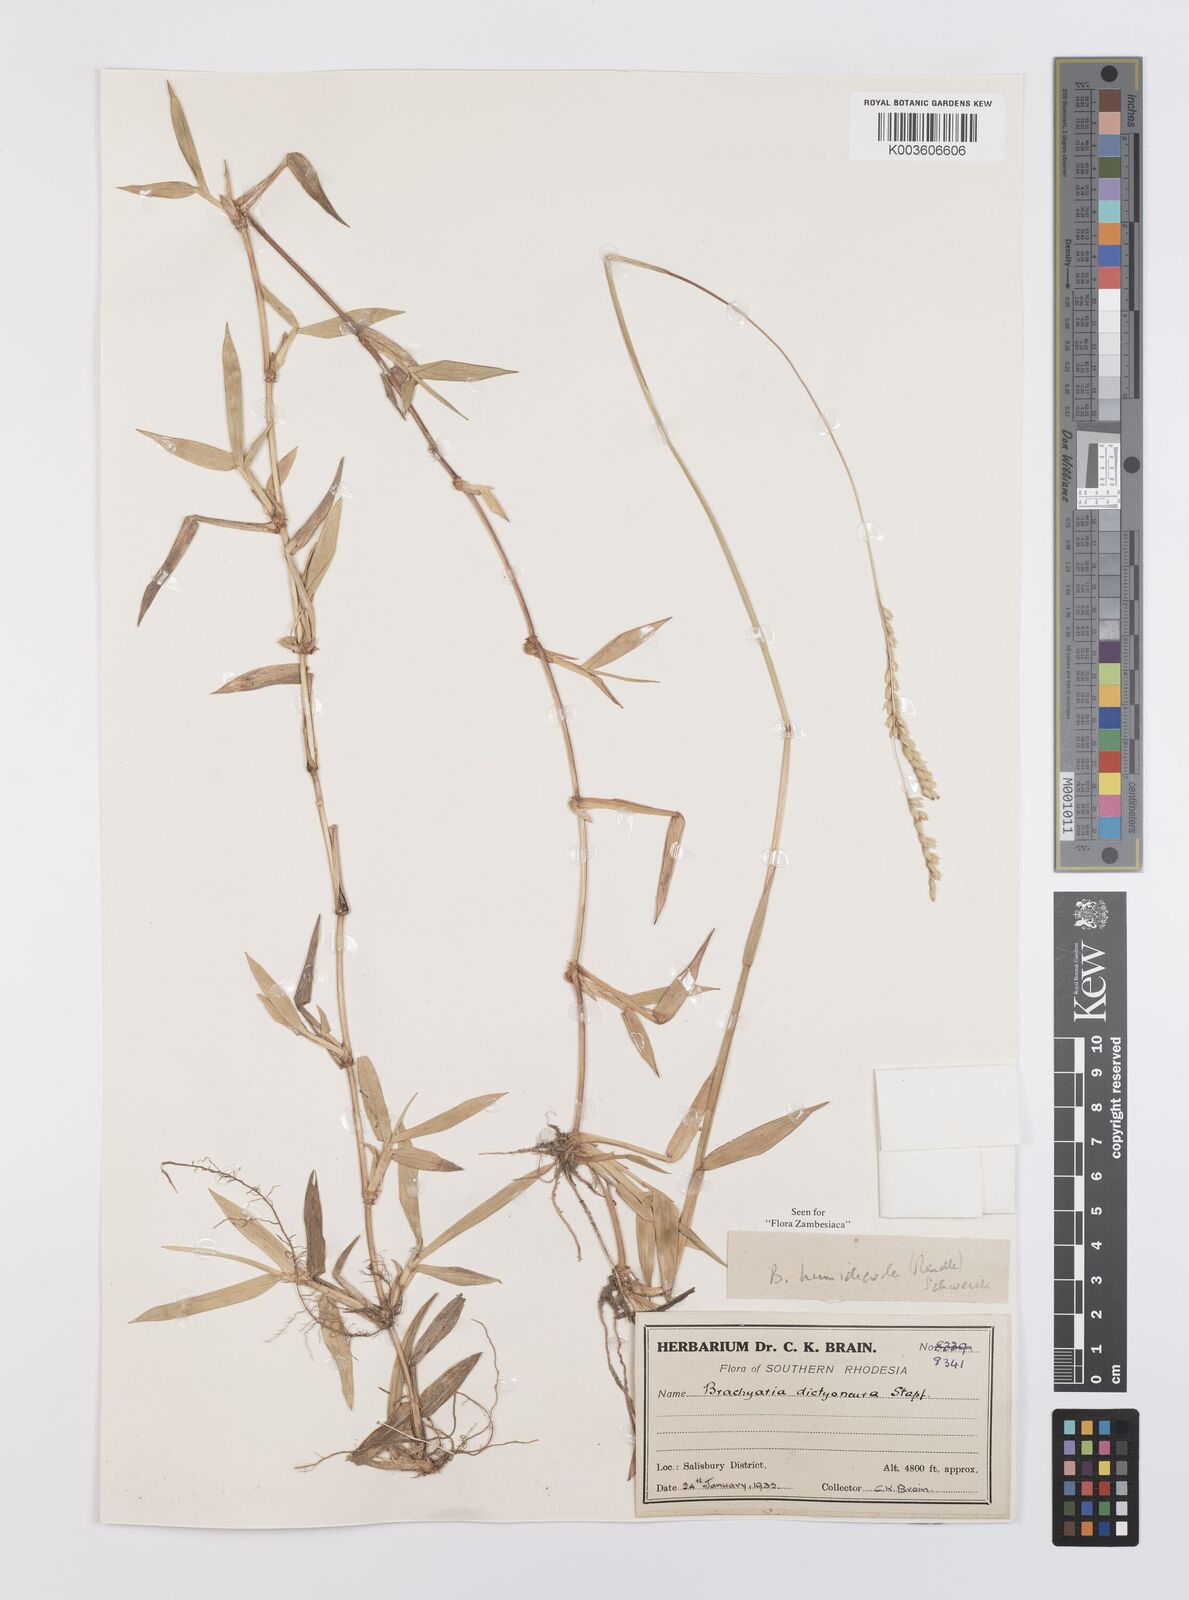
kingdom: Plantae
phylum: Tracheophyta
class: Liliopsida
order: Poales
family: Poaceae
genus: Urochloa
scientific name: Urochloa dictyoneura
